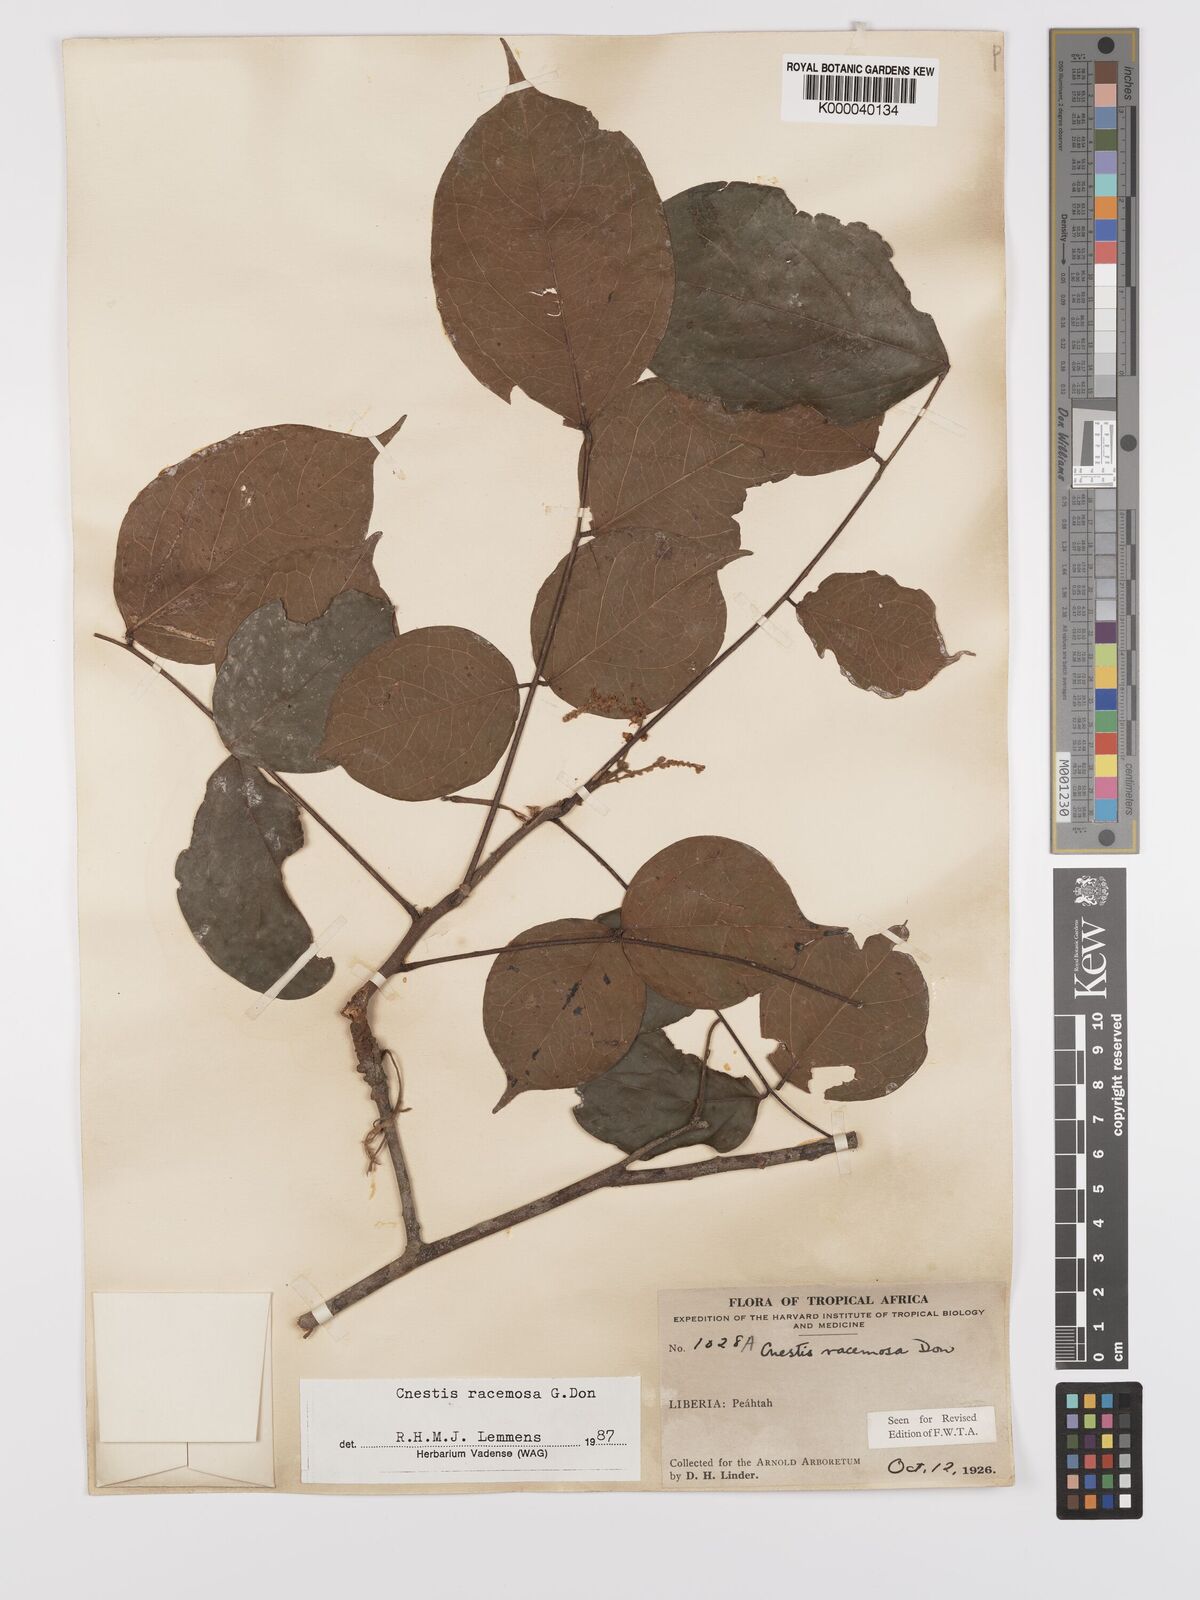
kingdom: Plantae
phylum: Tracheophyta
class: Magnoliopsida
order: Oxalidales
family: Connaraceae
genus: Cnestis
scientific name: Cnestis racemosa
